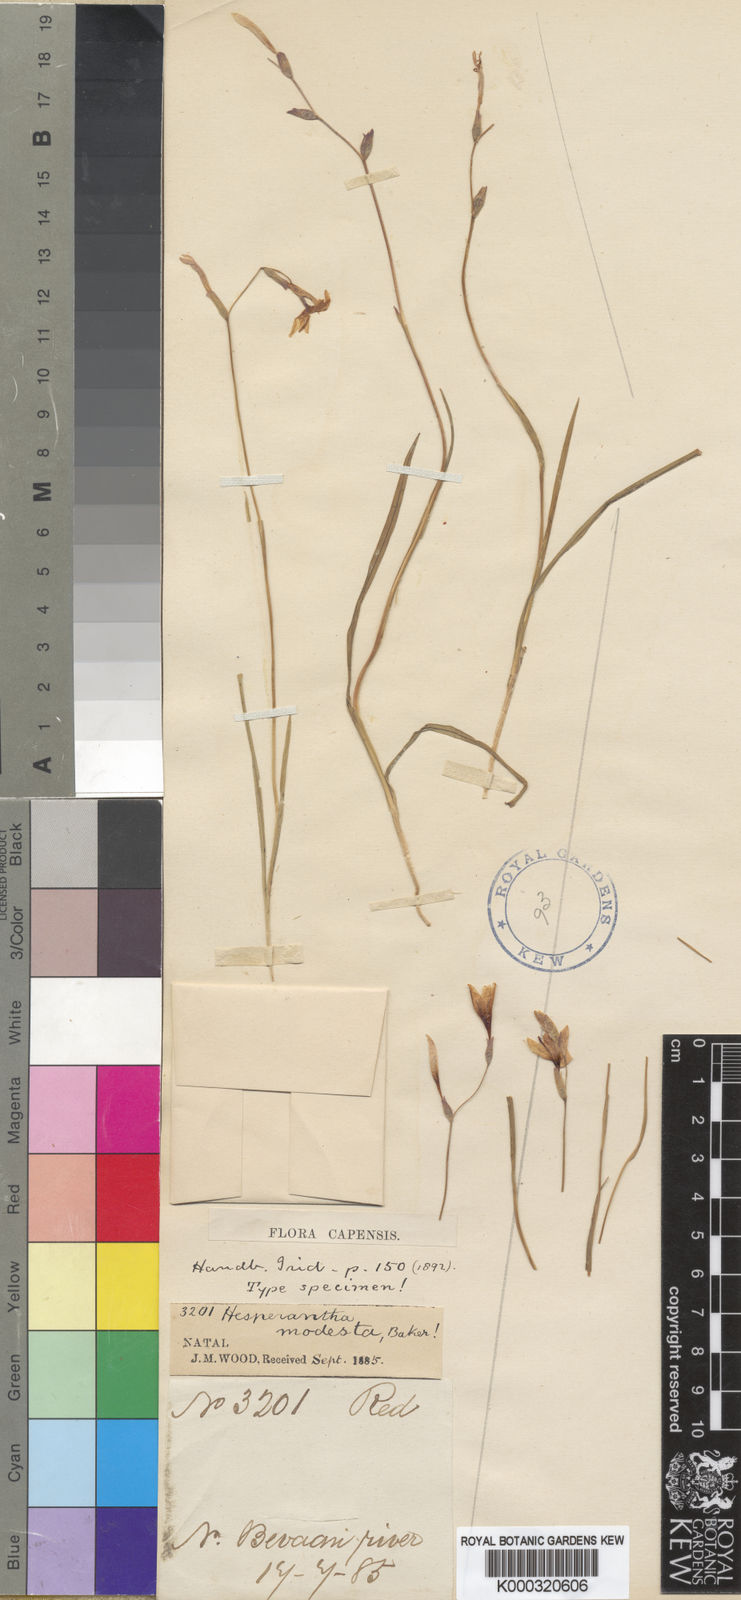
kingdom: Plantae
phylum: Tracheophyta
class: Liliopsida
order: Asparagales
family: Iridaceae
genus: Hesperantha
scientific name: Hesperantha modesta
